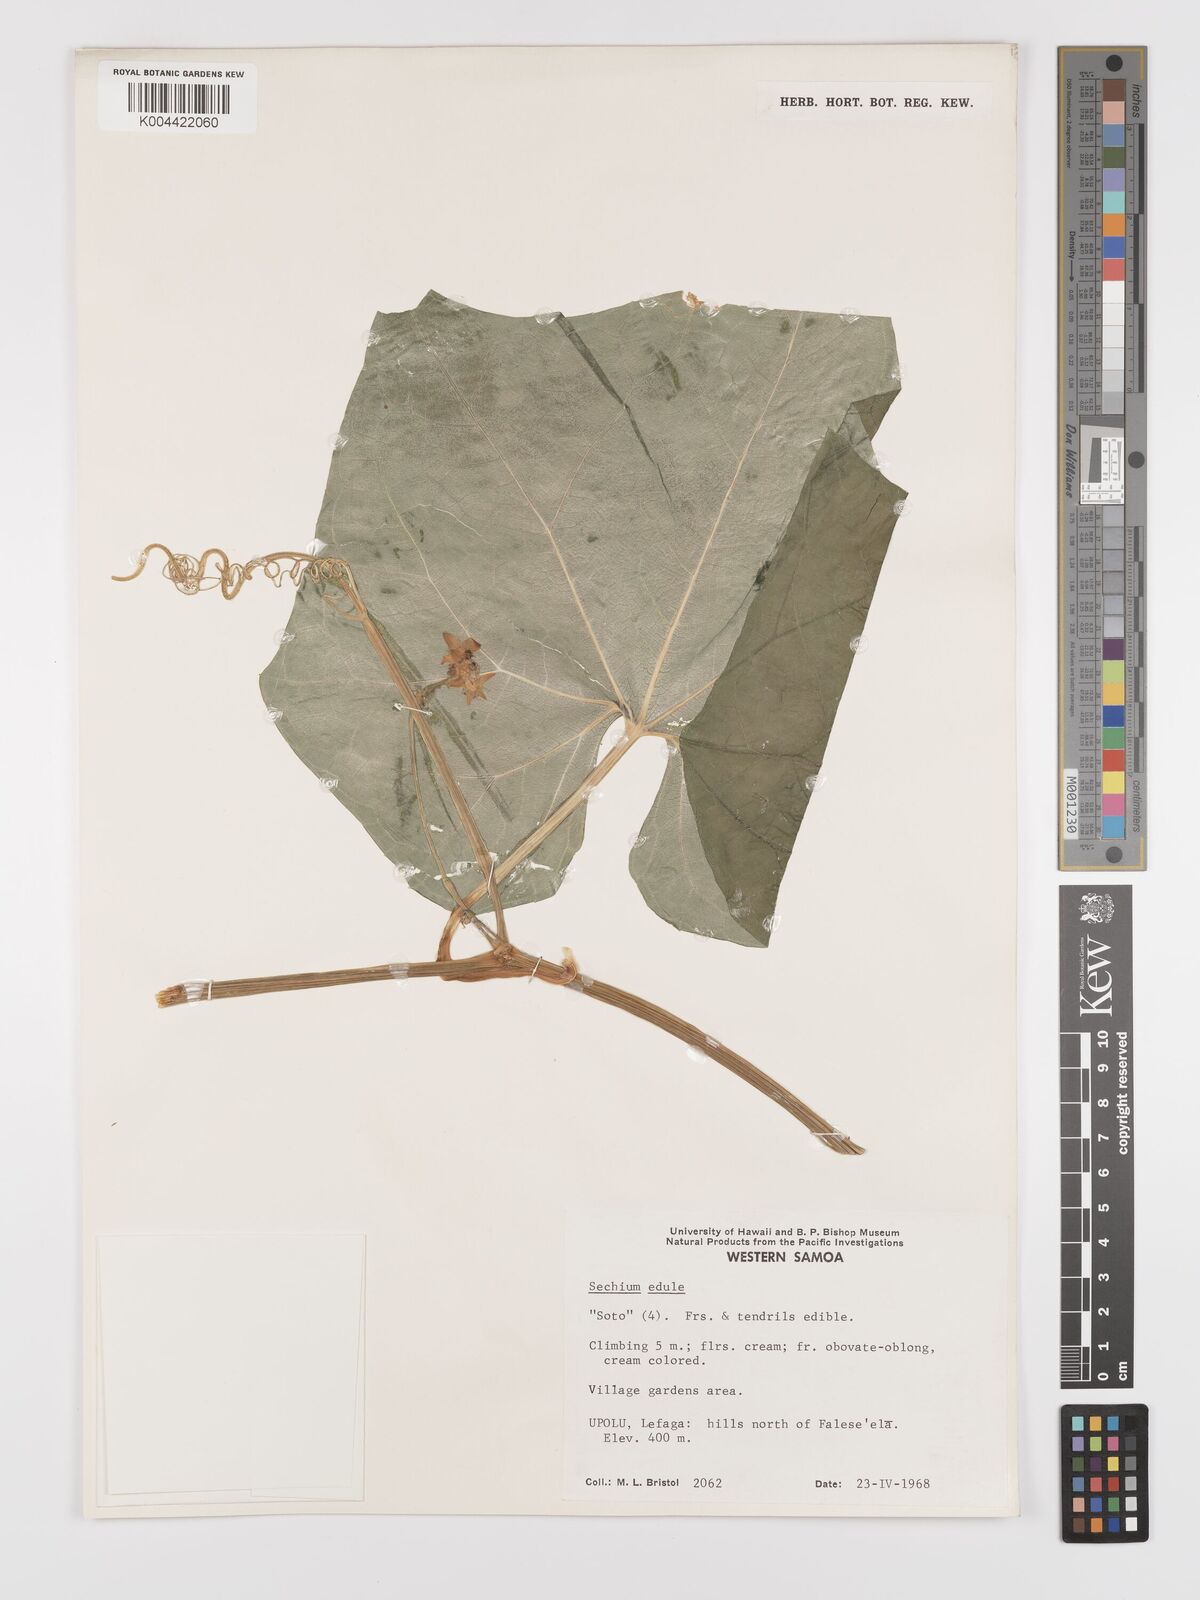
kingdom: Plantae
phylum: Tracheophyta
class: Magnoliopsida
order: Cucurbitales
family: Cucurbitaceae
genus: Sechium
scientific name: Sechium edule
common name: Chayote
